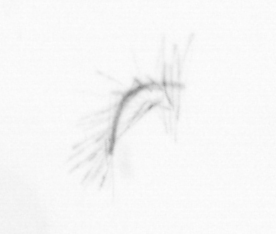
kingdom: Chromista
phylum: Ochrophyta
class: Bacillariophyceae
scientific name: Bacillariophyceae
